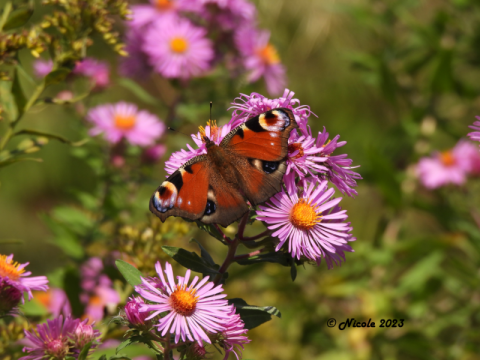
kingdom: Animalia
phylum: Arthropoda
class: Insecta
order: Lepidoptera
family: Nymphalidae
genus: Aglais
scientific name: Aglais io
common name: European Peacock
